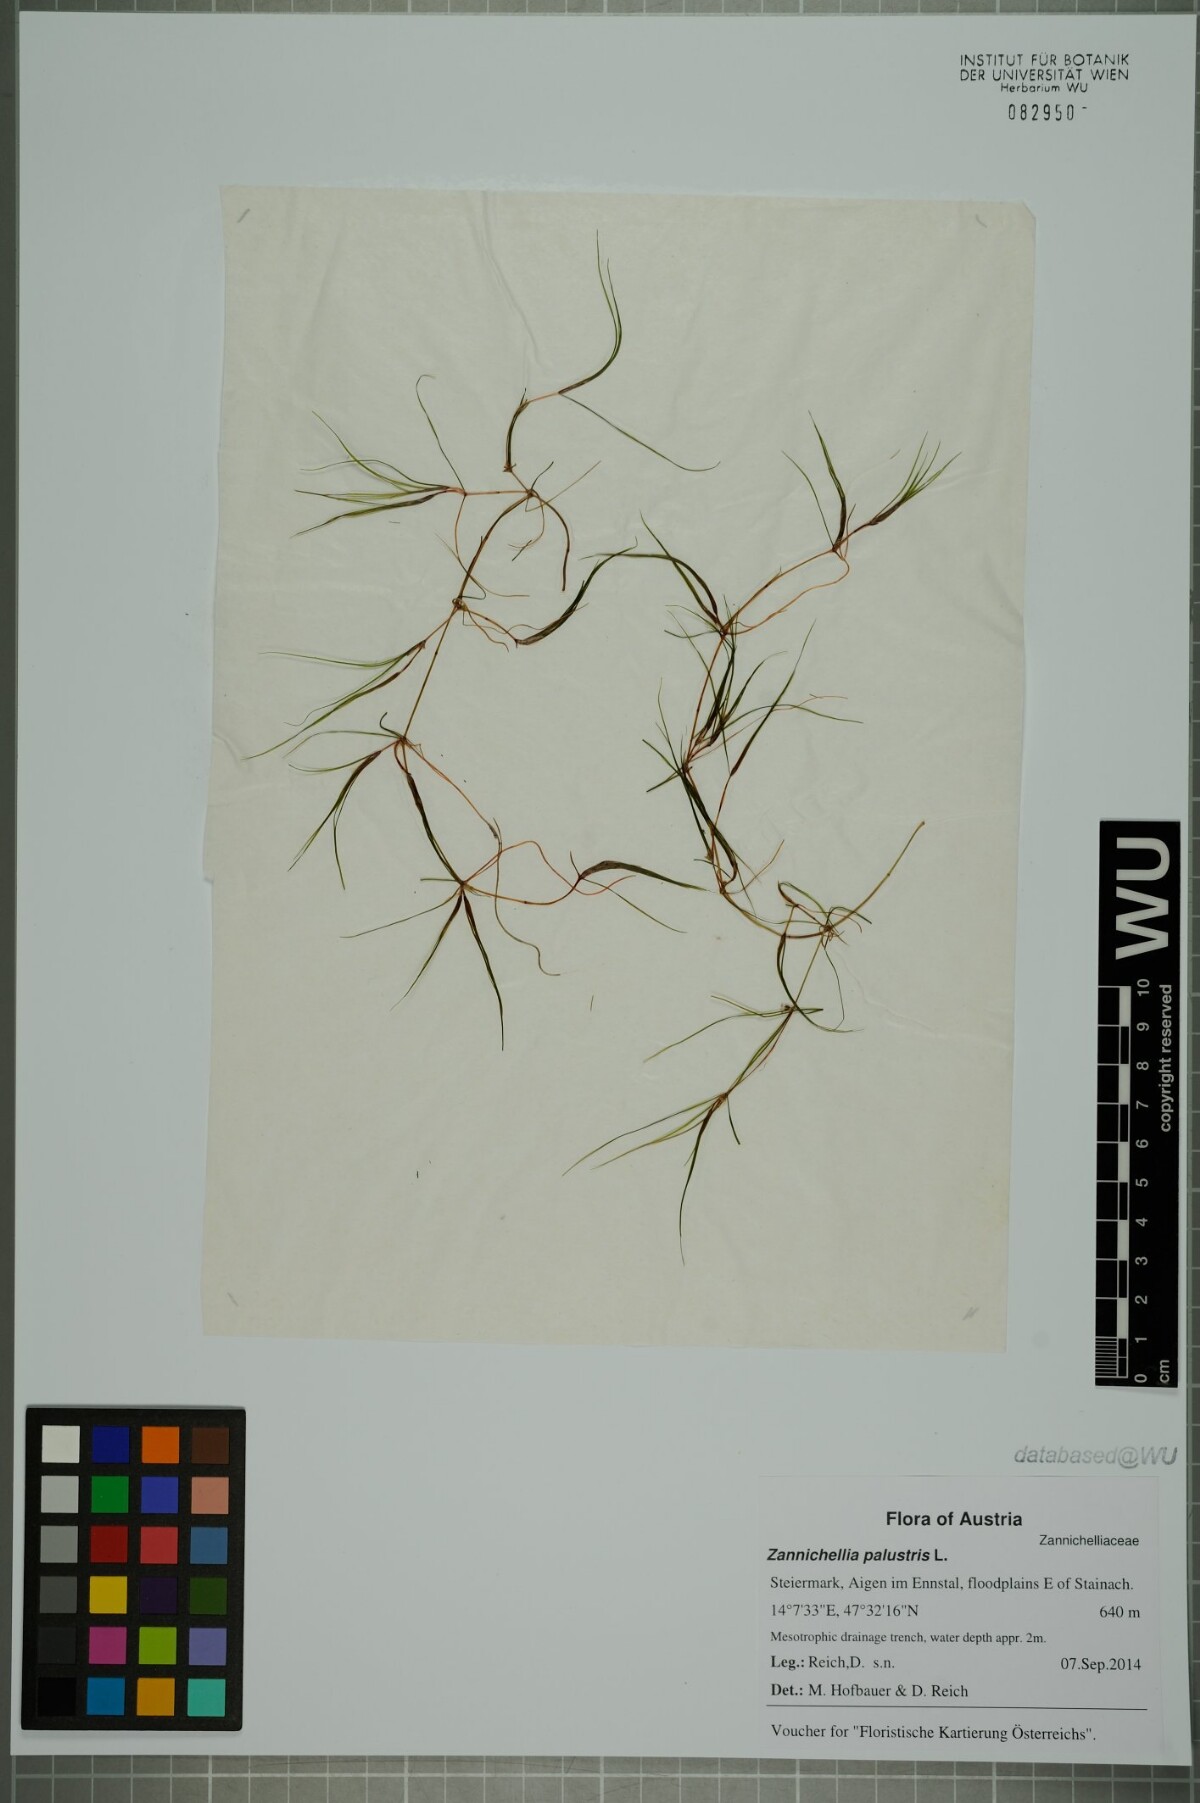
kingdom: Plantae
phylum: Tracheophyta
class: Liliopsida
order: Alismatales
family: Potamogetonaceae
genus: Zannichellia
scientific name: Zannichellia palustris
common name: Horned pondweed
